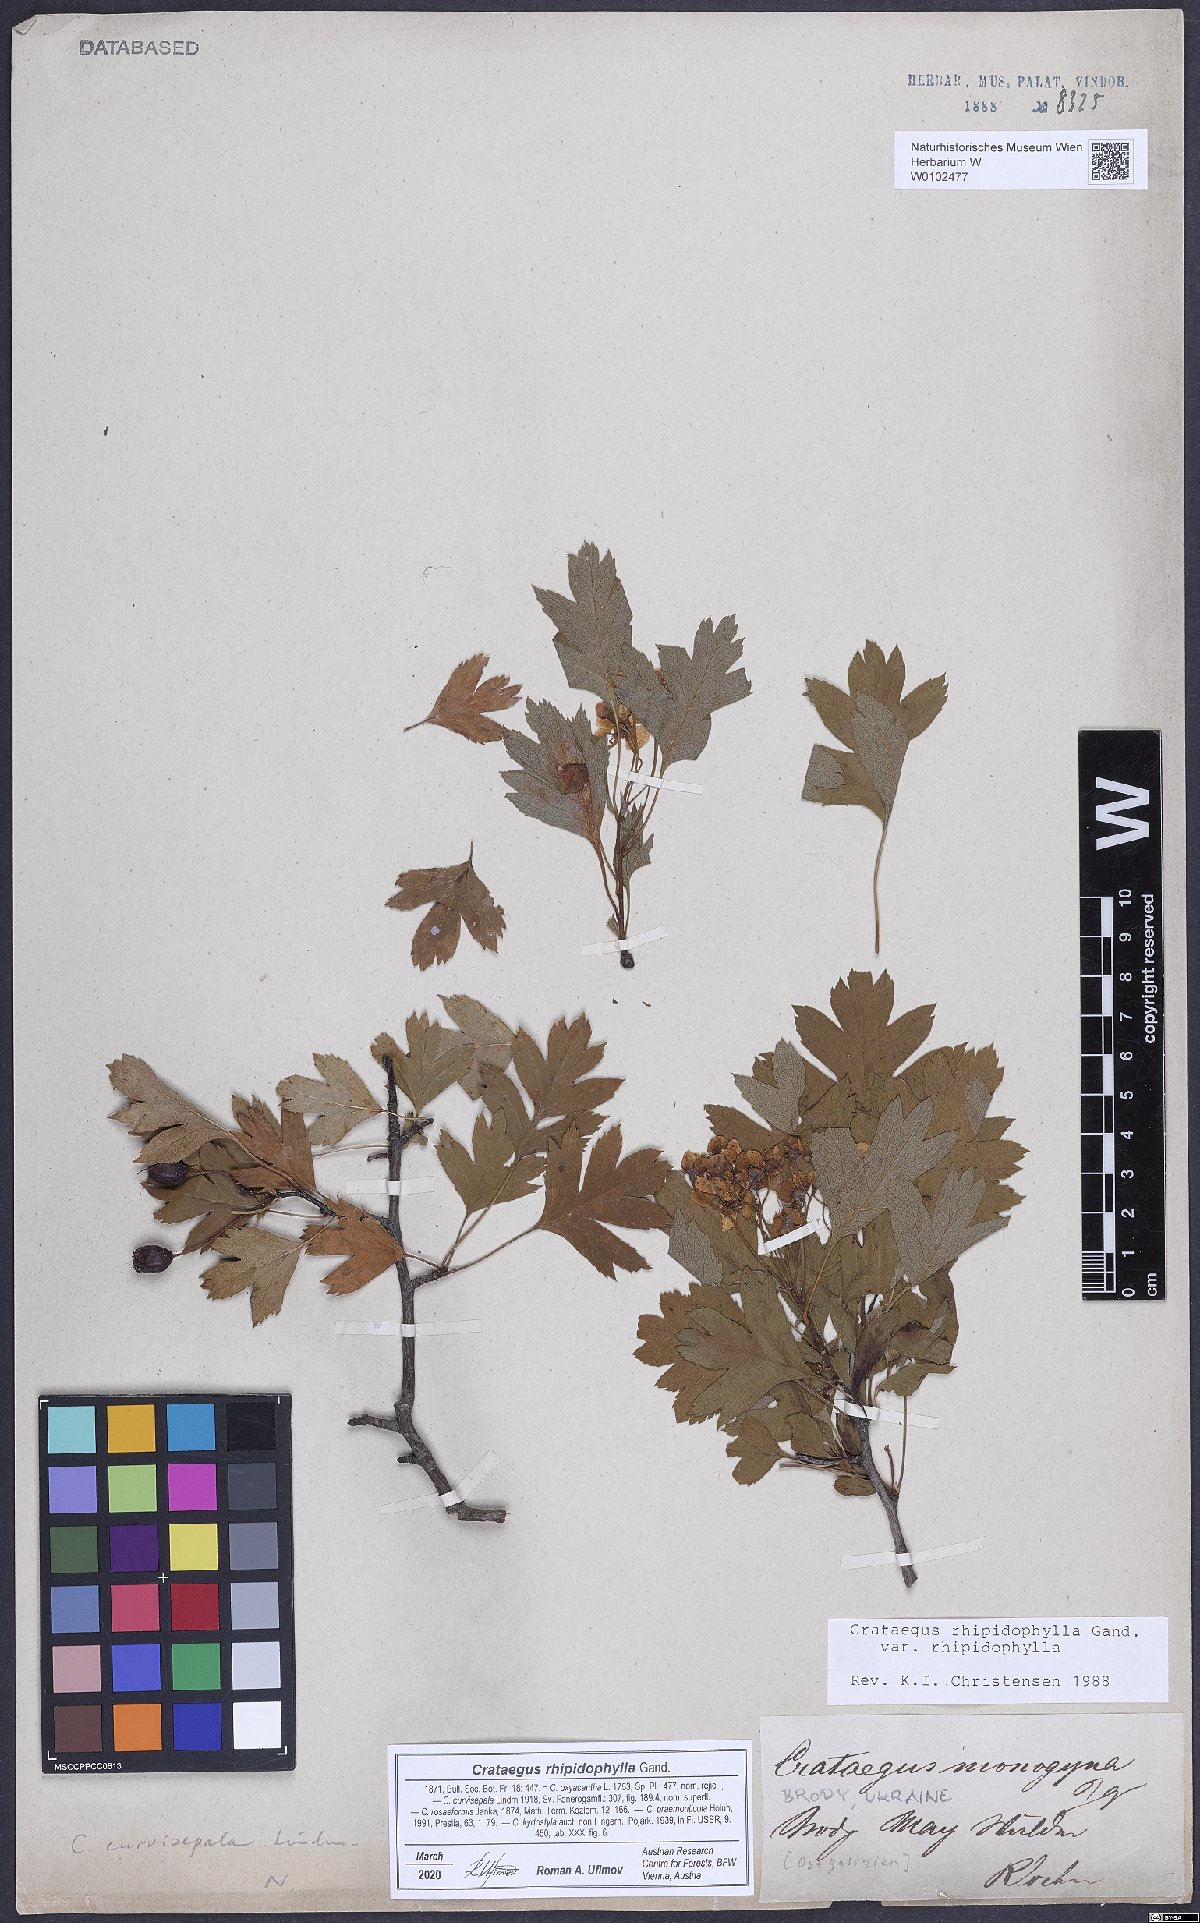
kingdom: Plantae
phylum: Tracheophyta
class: Magnoliopsida
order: Rosales
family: Rosaceae
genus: Crataegus
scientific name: Crataegus rhipidophylla
